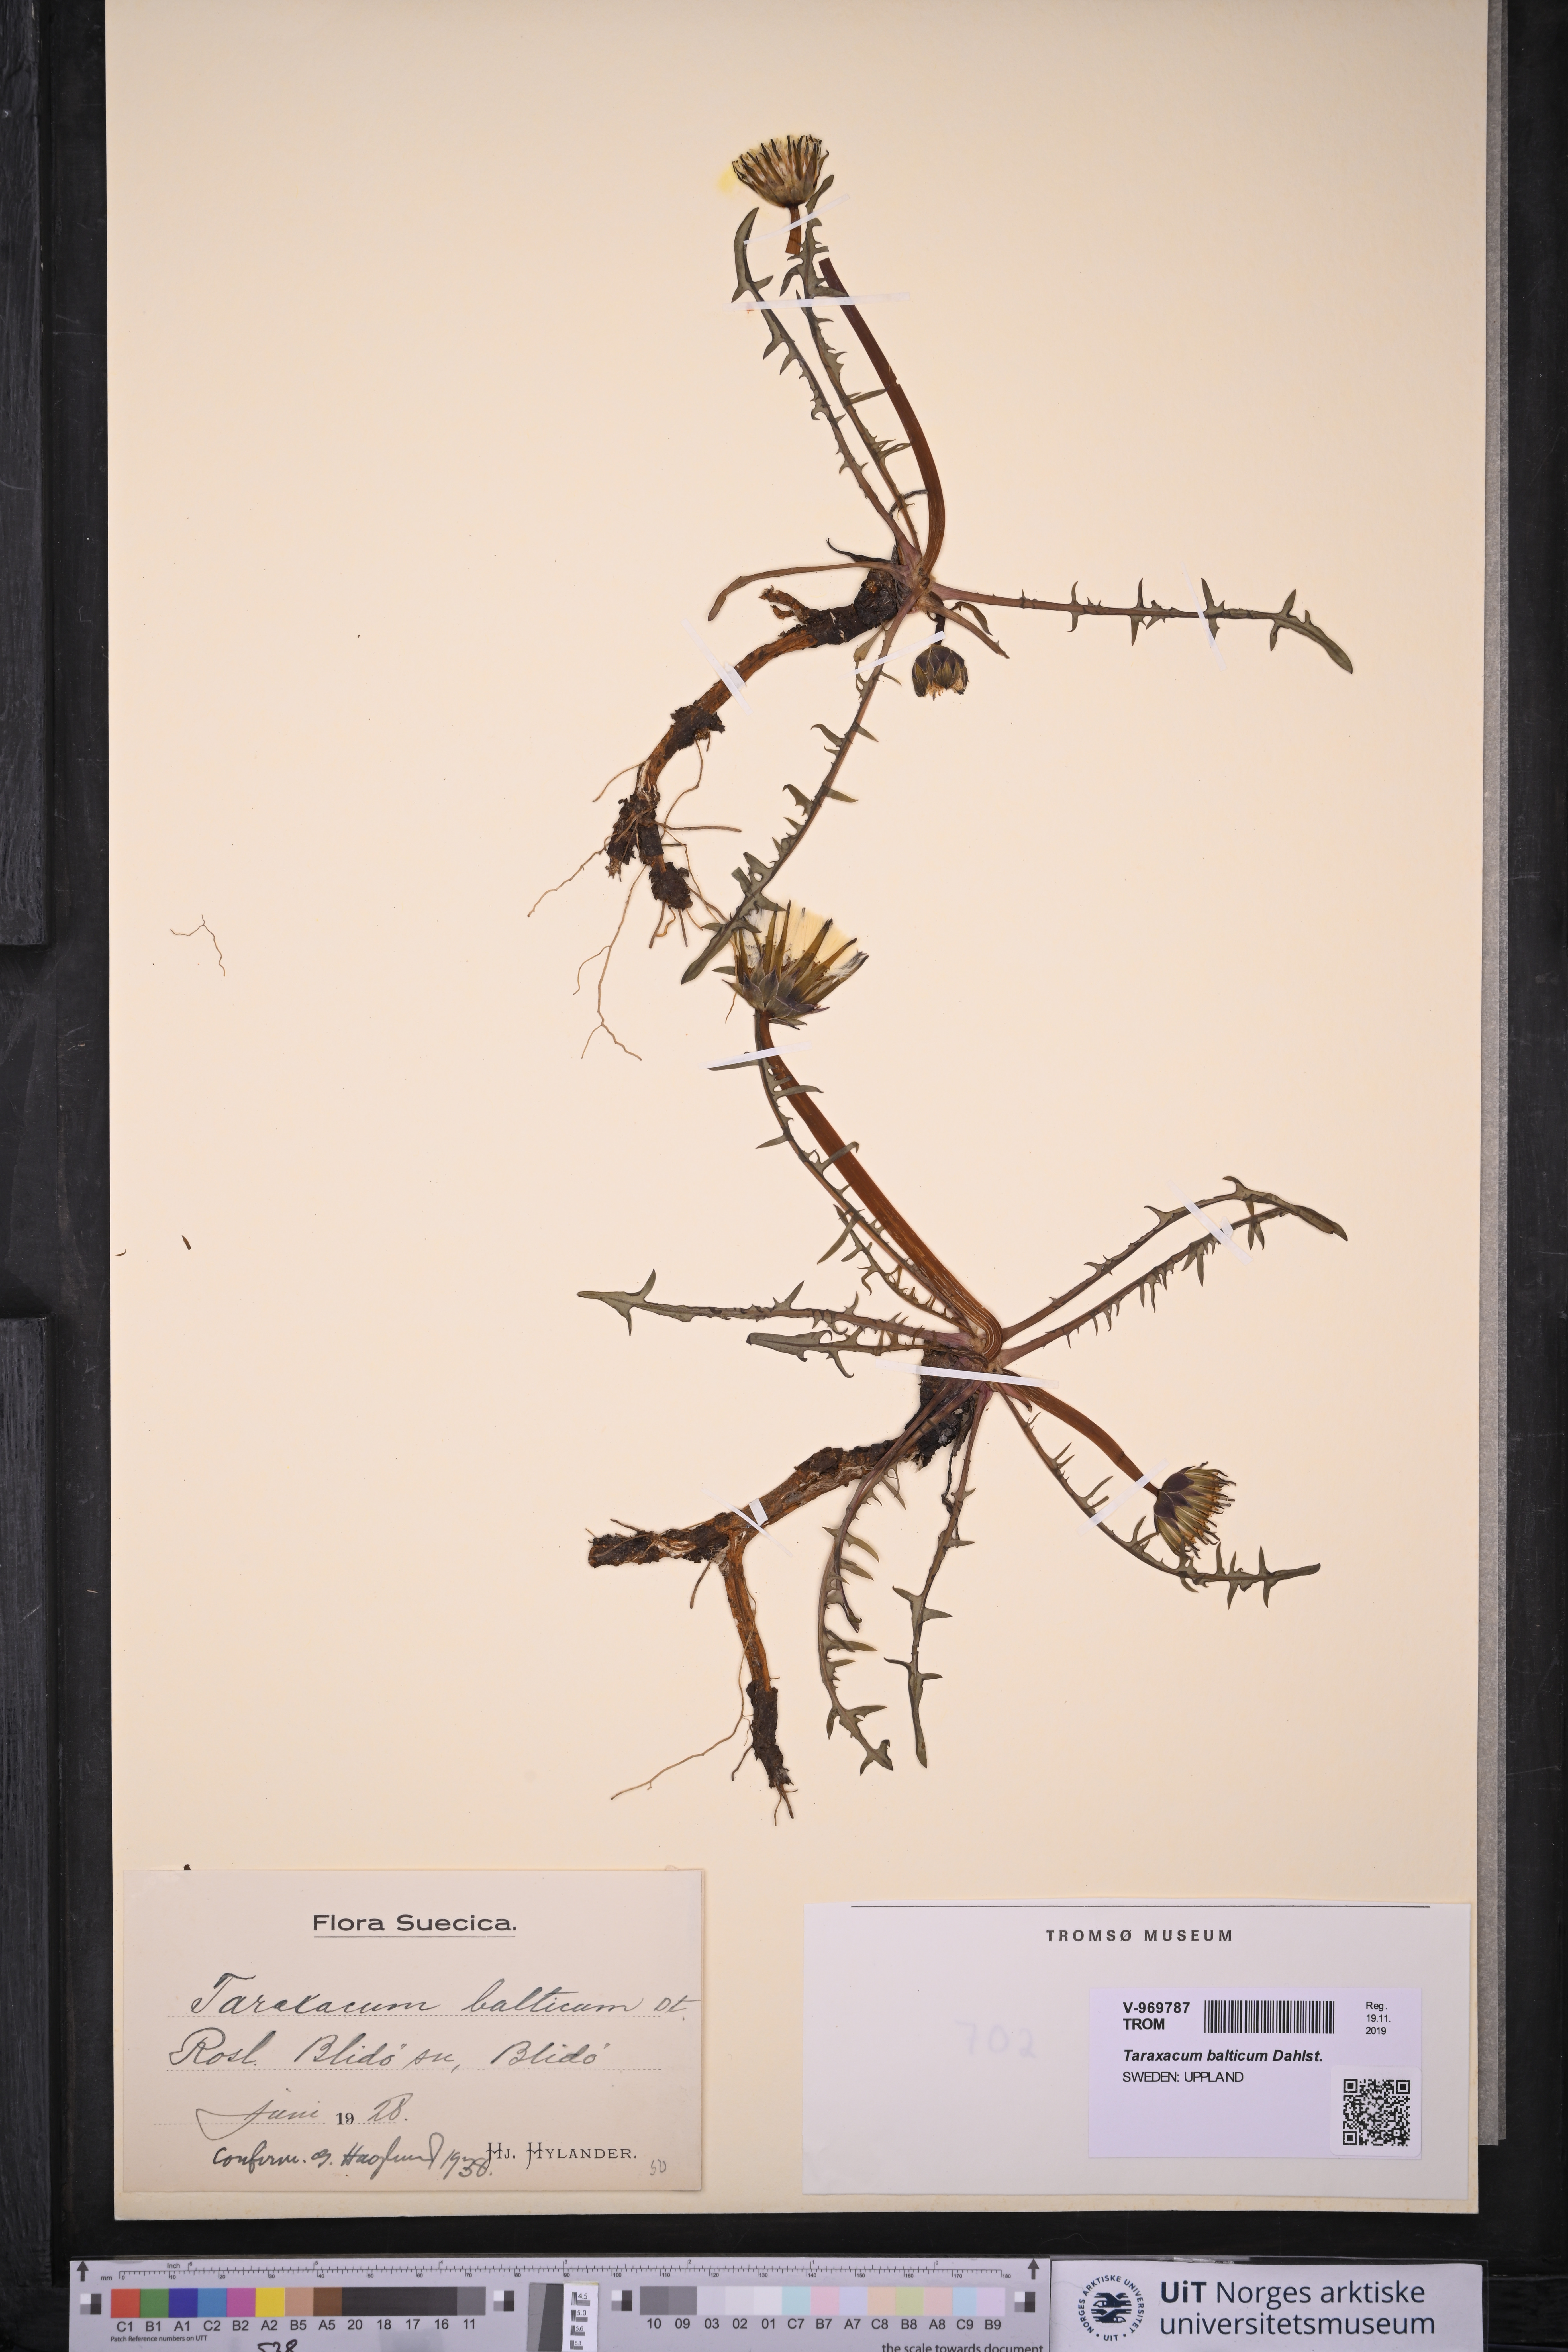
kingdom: Plantae
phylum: Tracheophyta
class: Magnoliopsida
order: Asterales
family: Asteraceae
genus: Taraxacum
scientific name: Taraxacum balticum
